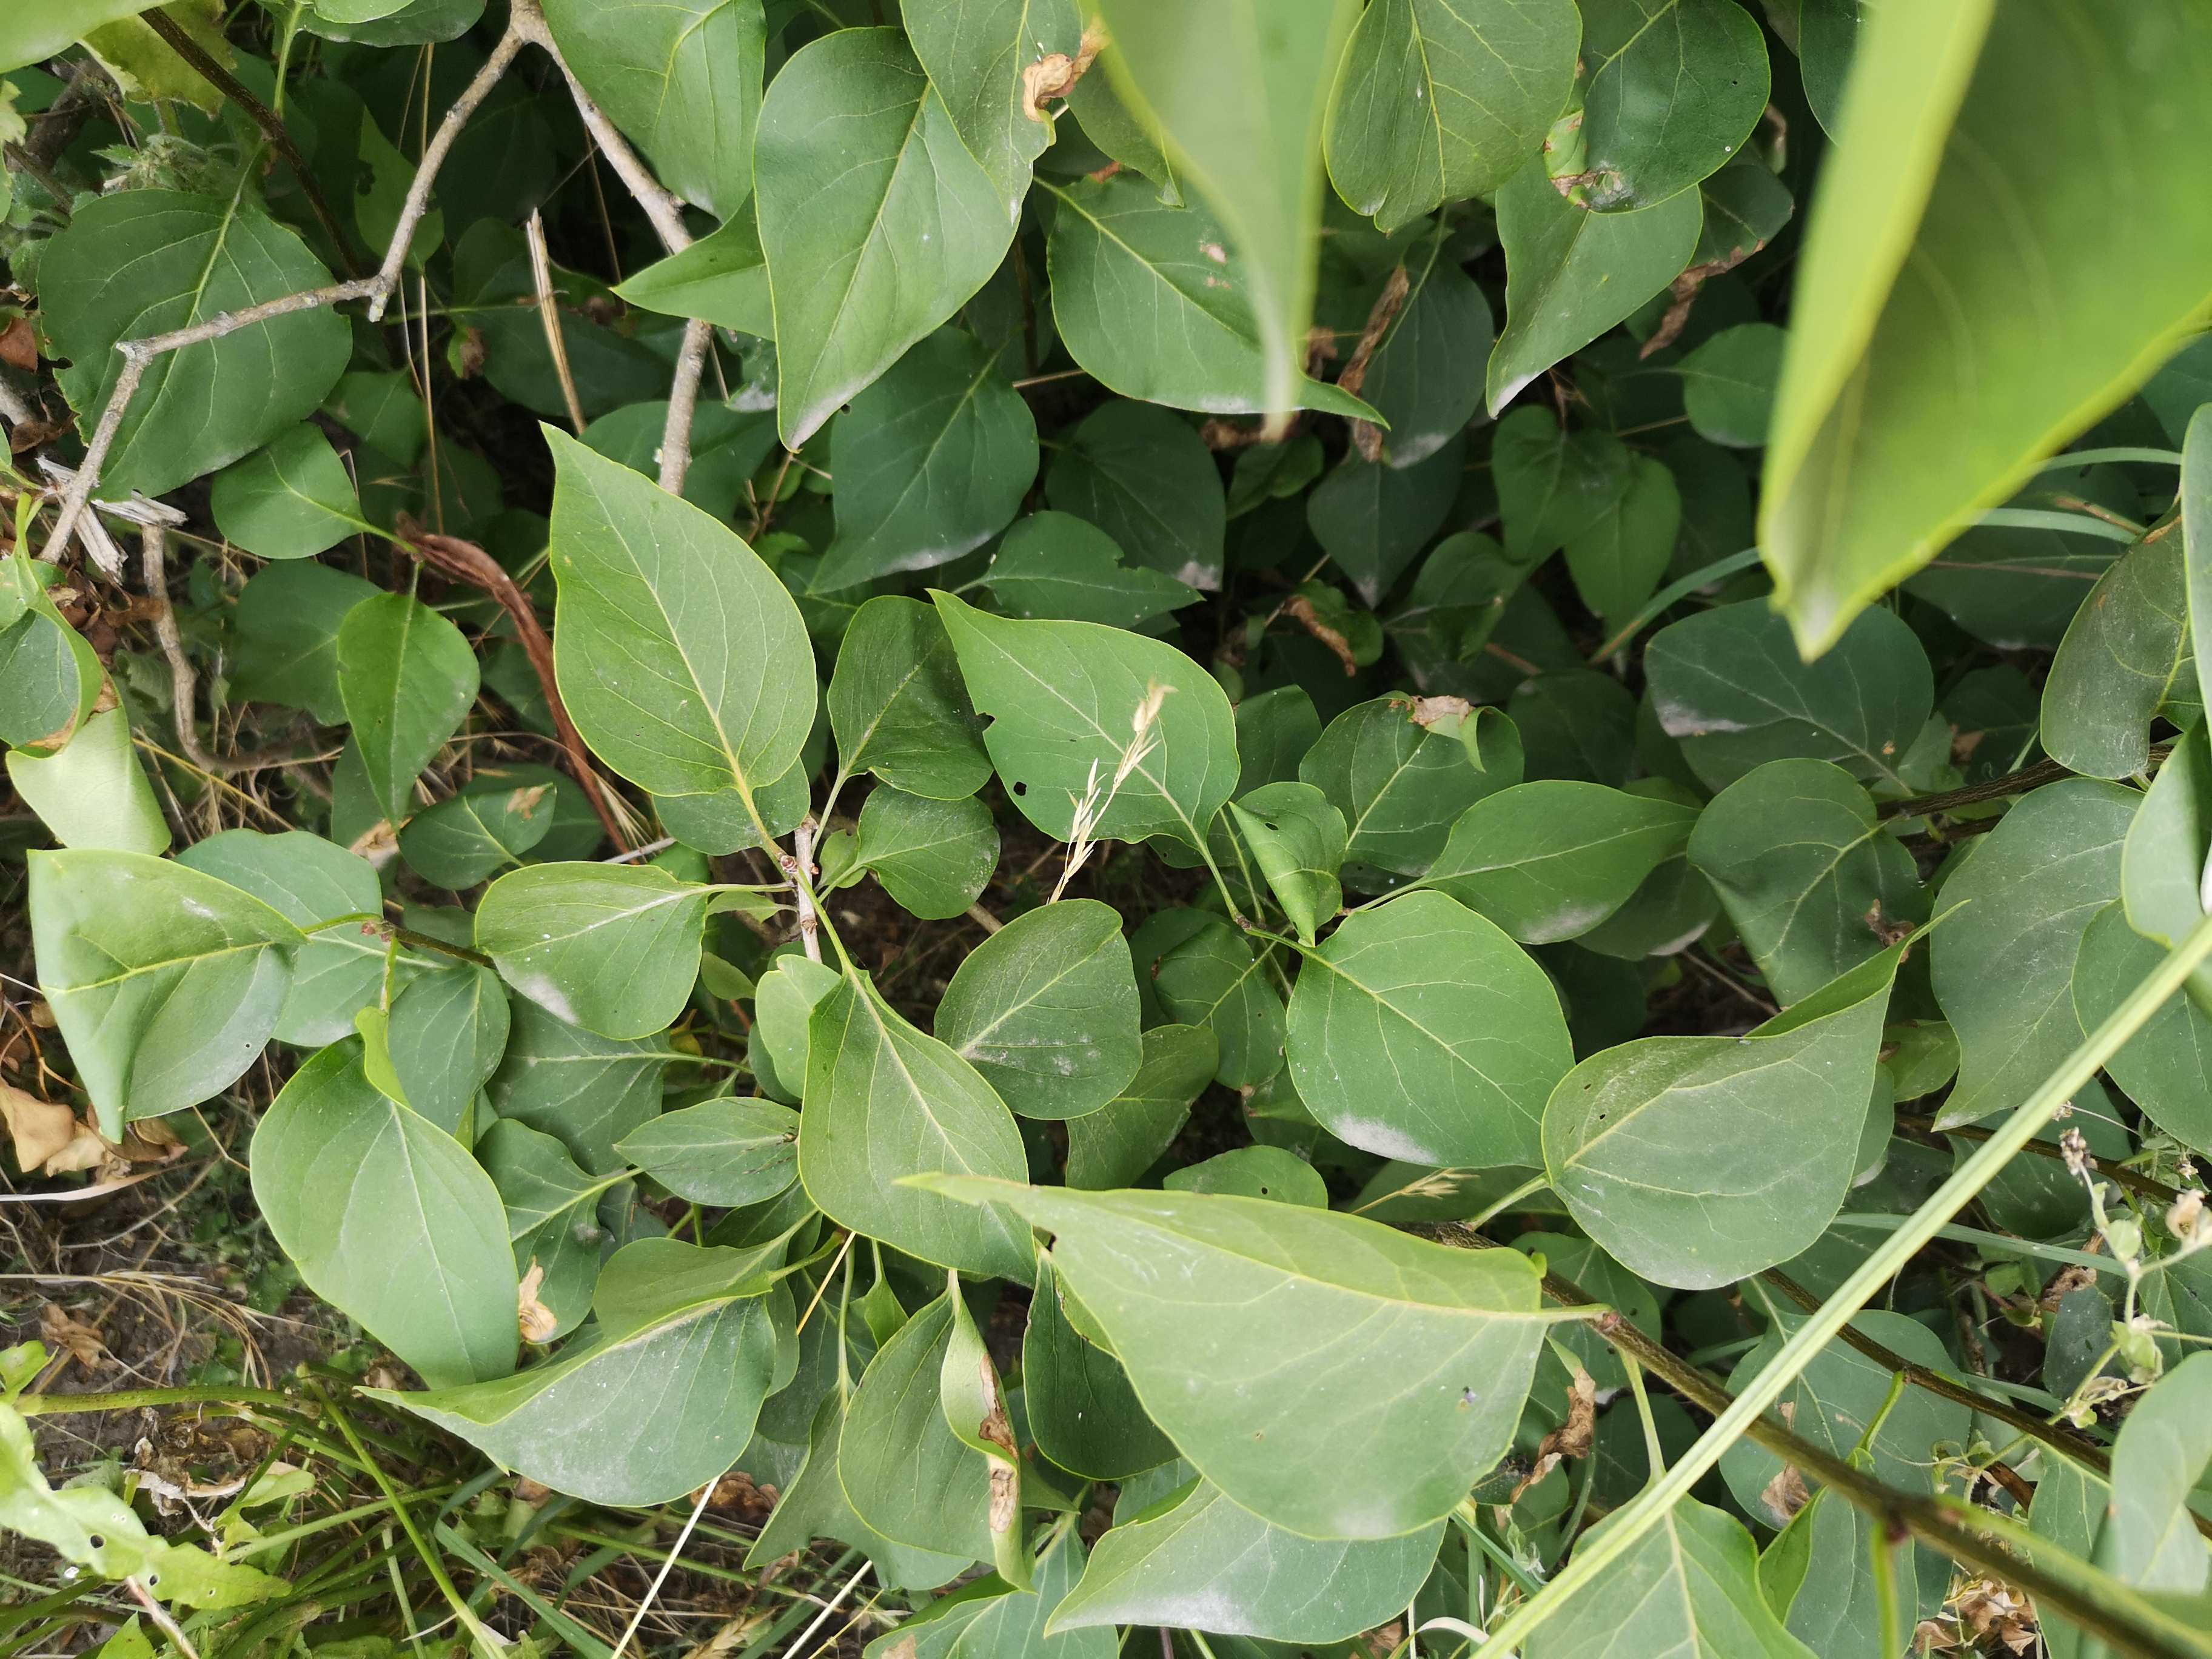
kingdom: Fungi
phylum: Ascomycota
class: Leotiomycetes
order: Helotiales
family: Erysiphaceae
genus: Erysiphe
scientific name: Erysiphe syringae-japonicae
